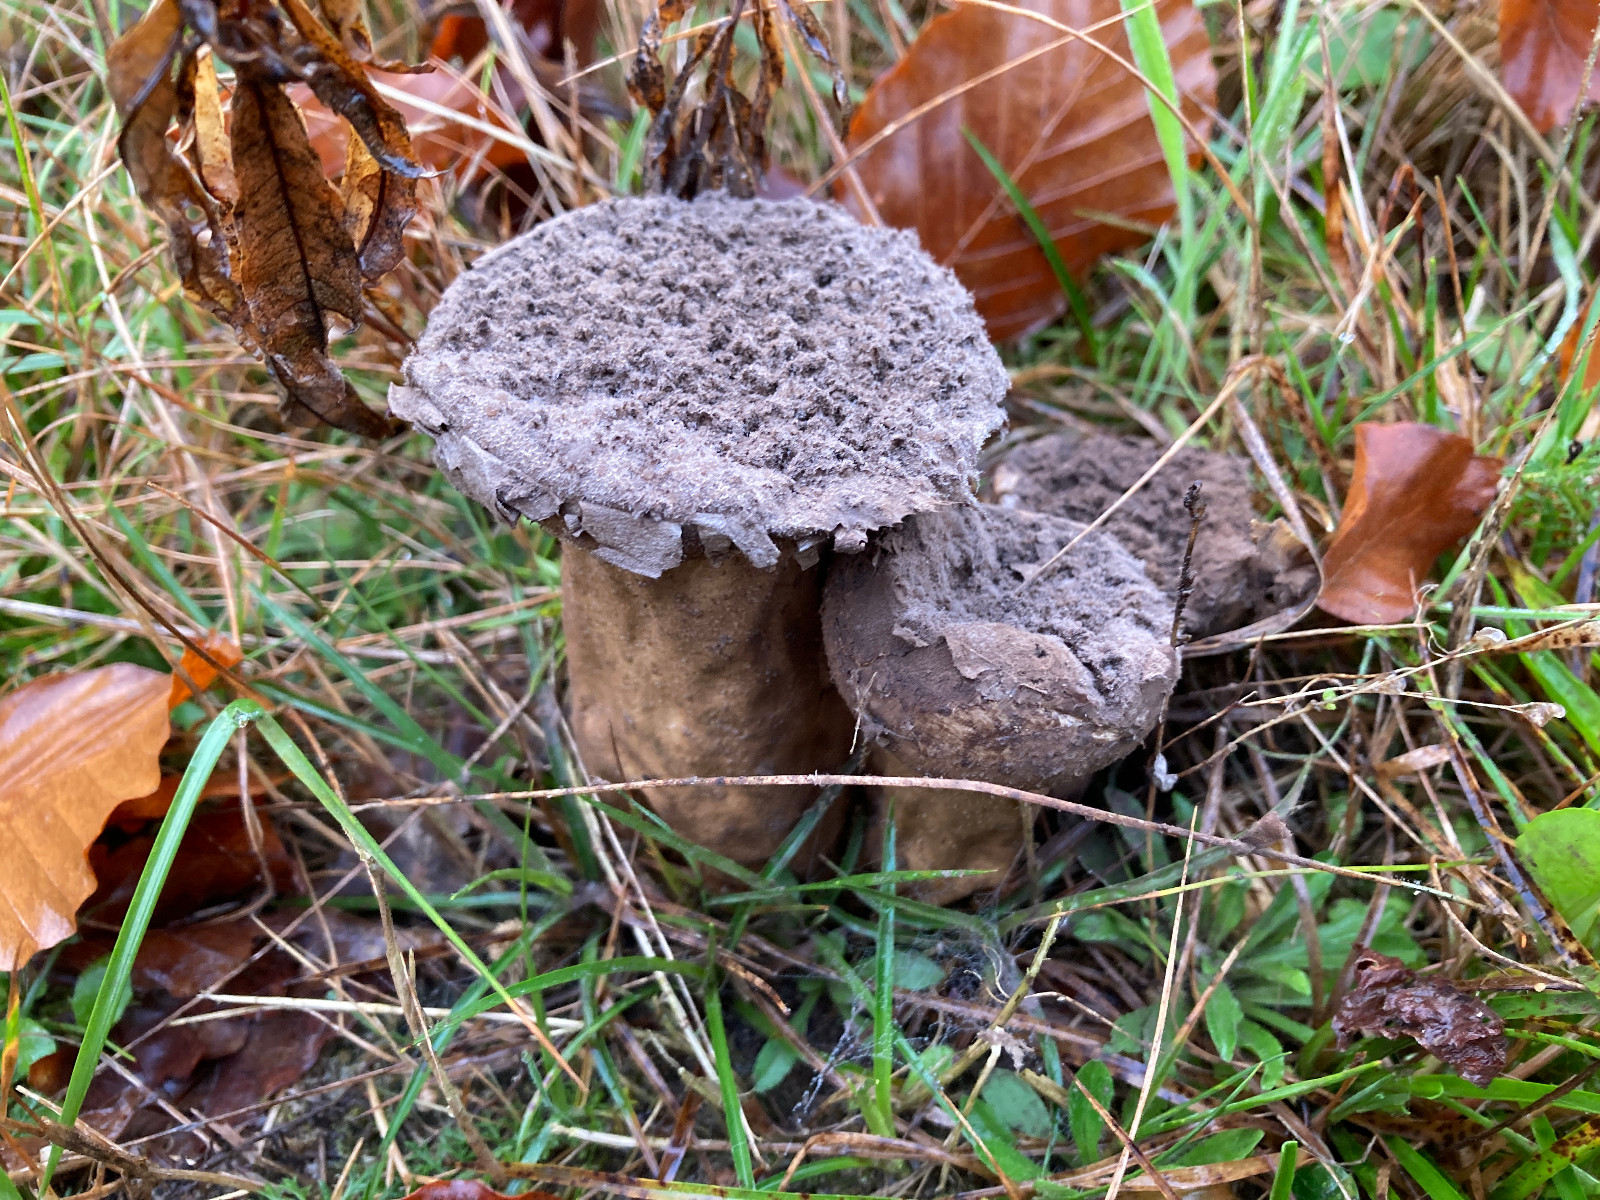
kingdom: Fungi
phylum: Basidiomycota
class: Agaricomycetes
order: Agaricales
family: Lycoperdaceae
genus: Lycoperdon
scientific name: Lycoperdon excipuliforme
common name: højstokket støvbold
